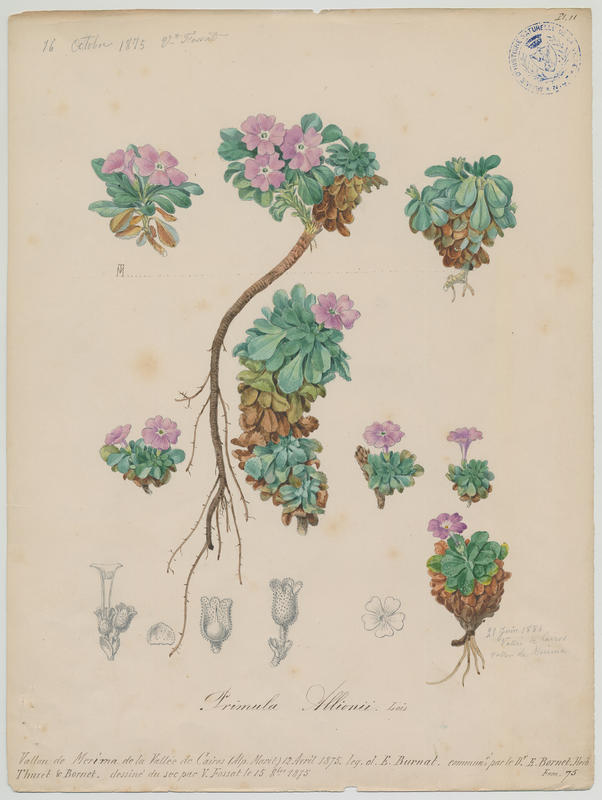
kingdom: Plantae
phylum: Tracheophyta
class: Magnoliopsida
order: Ericales
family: Primulaceae
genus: Primula
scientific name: Primula allionii
